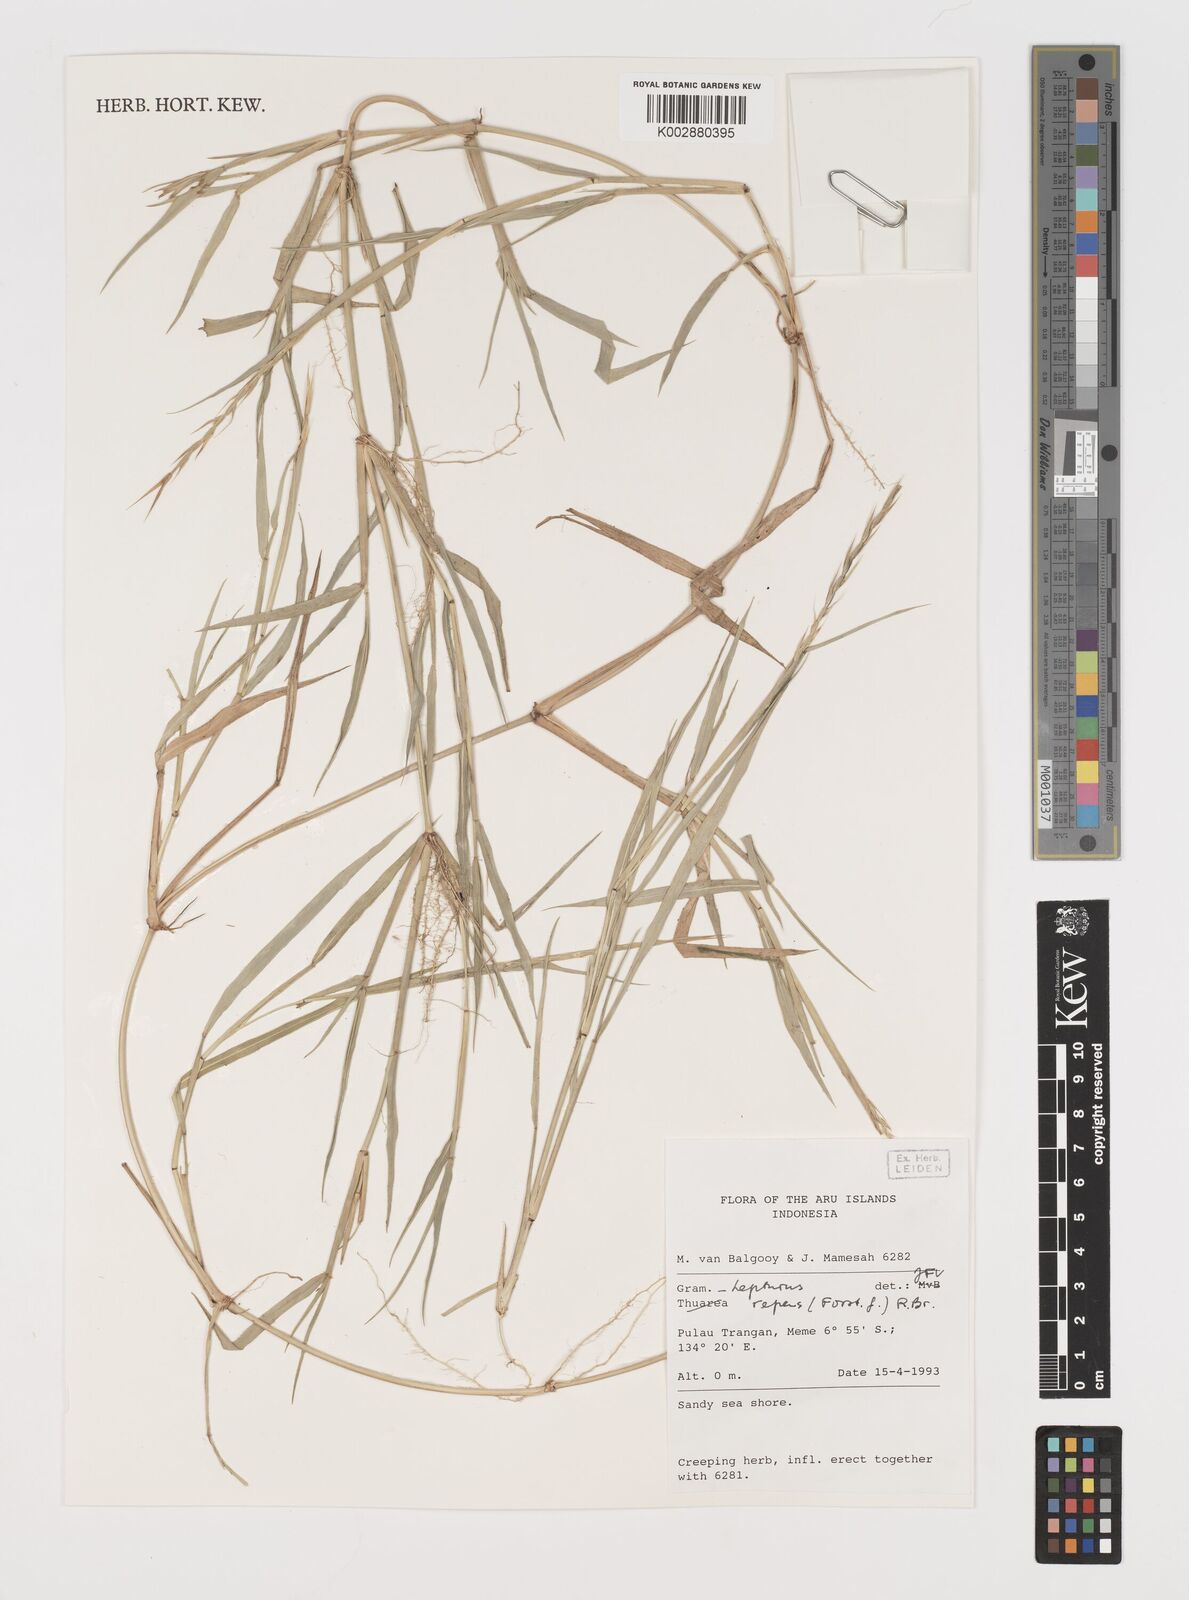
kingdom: Plantae
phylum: Tracheophyta
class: Liliopsida
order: Poales
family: Poaceae
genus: Lepturus
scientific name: Lepturus repens
